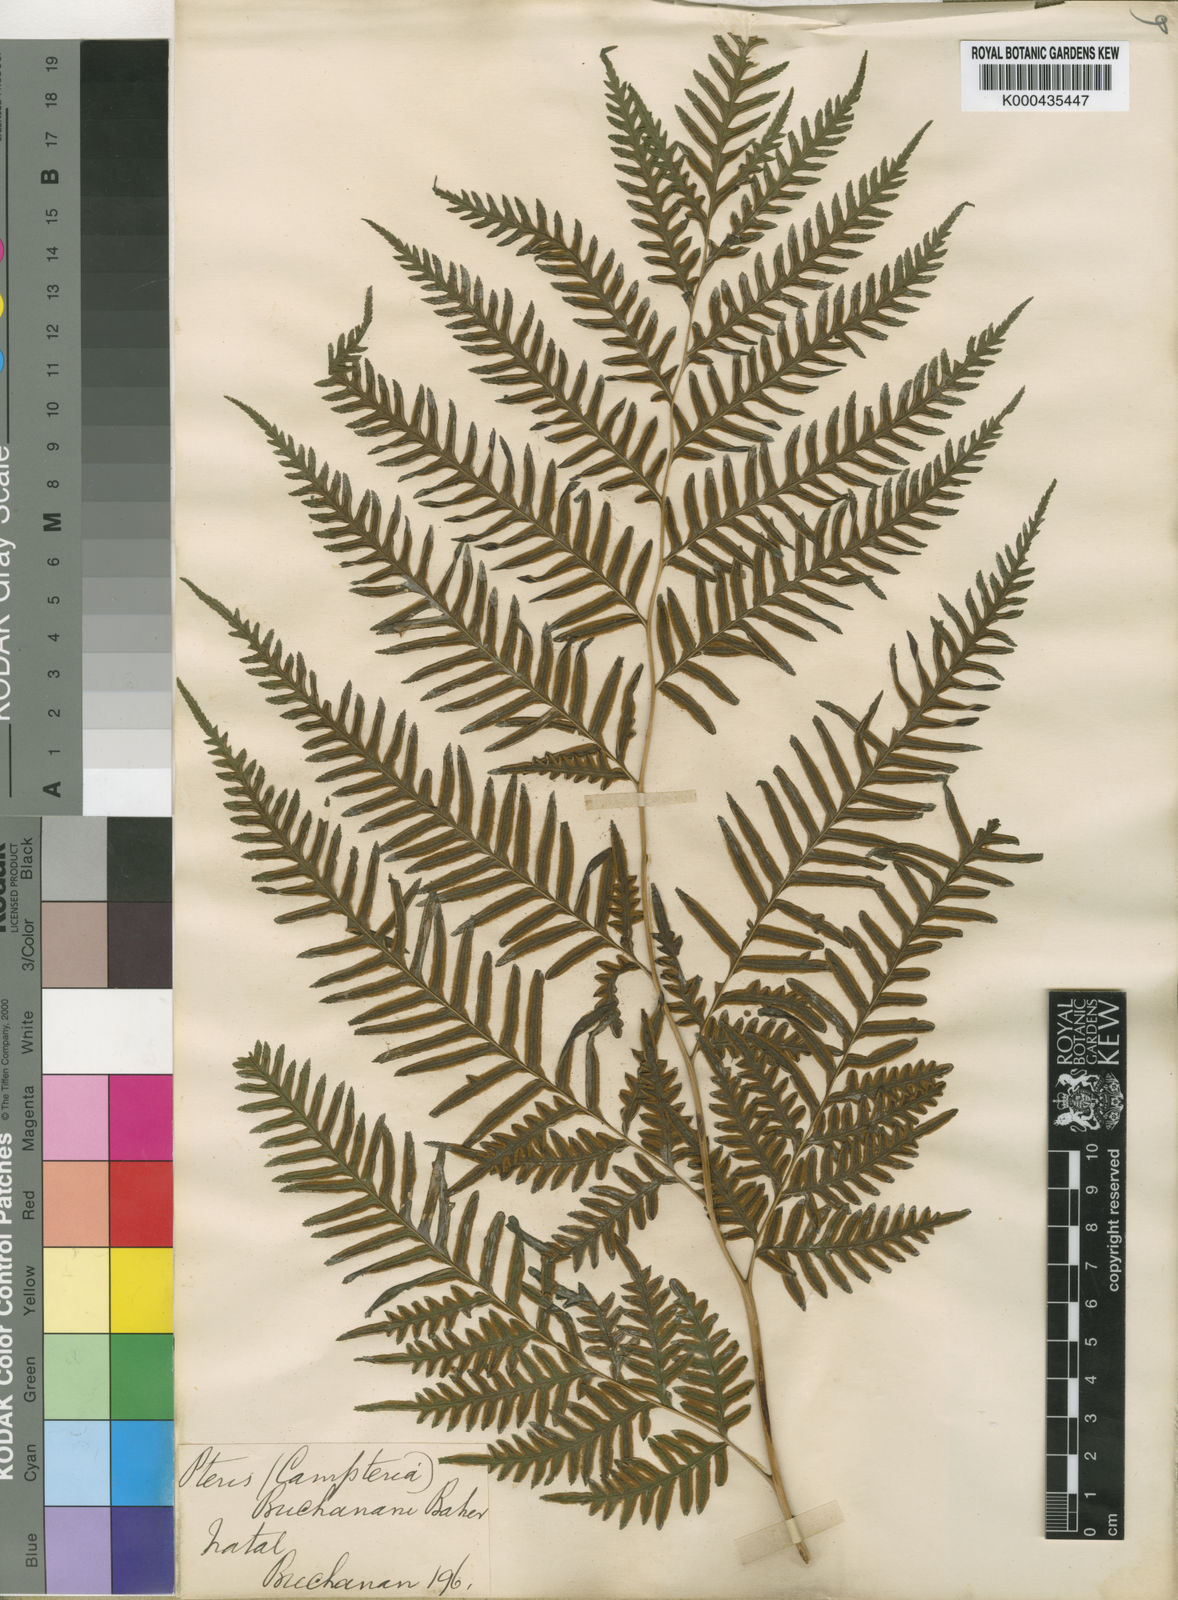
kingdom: Plantae
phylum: Tracheophyta
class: Polypodiopsida
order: Polypodiales
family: Pteridaceae
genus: Pteris
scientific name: Pteris
